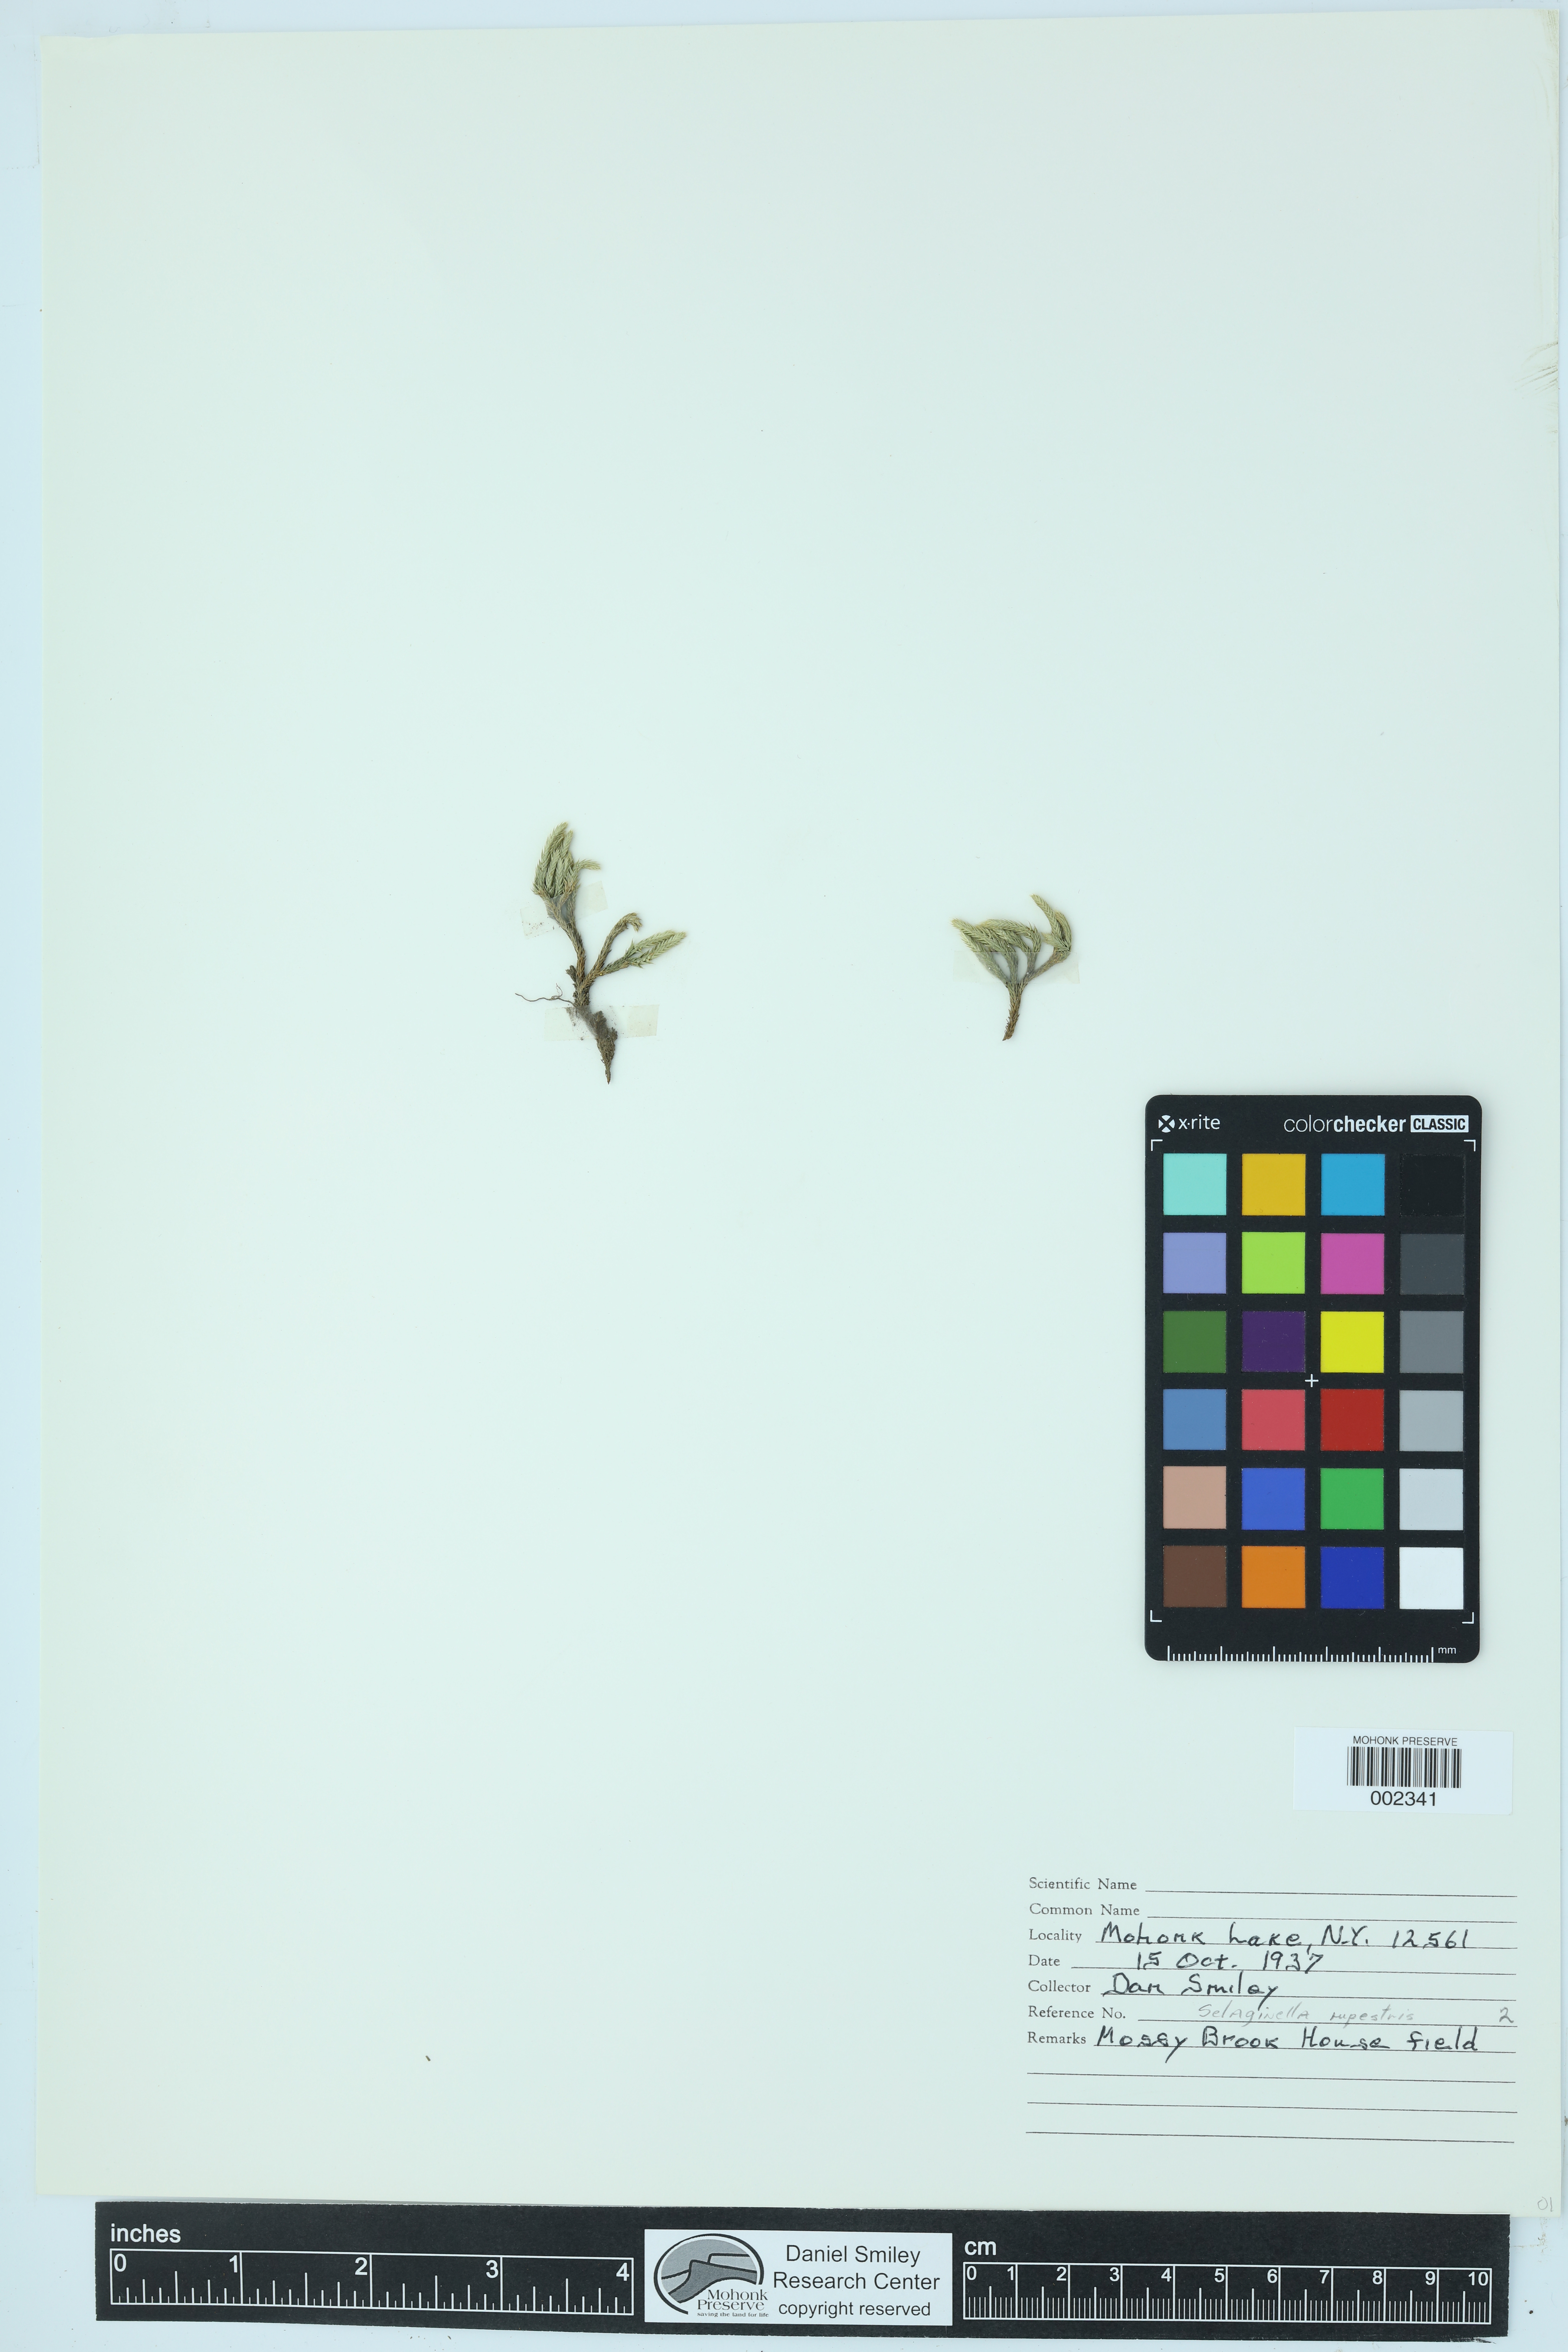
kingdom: Plantae
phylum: Tracheophyta
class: Lycopodiopsida
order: Selaginellales
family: Selaginellaceae
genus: Selaginella
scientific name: Selaginella rupestris
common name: Dwarf spikemoss
